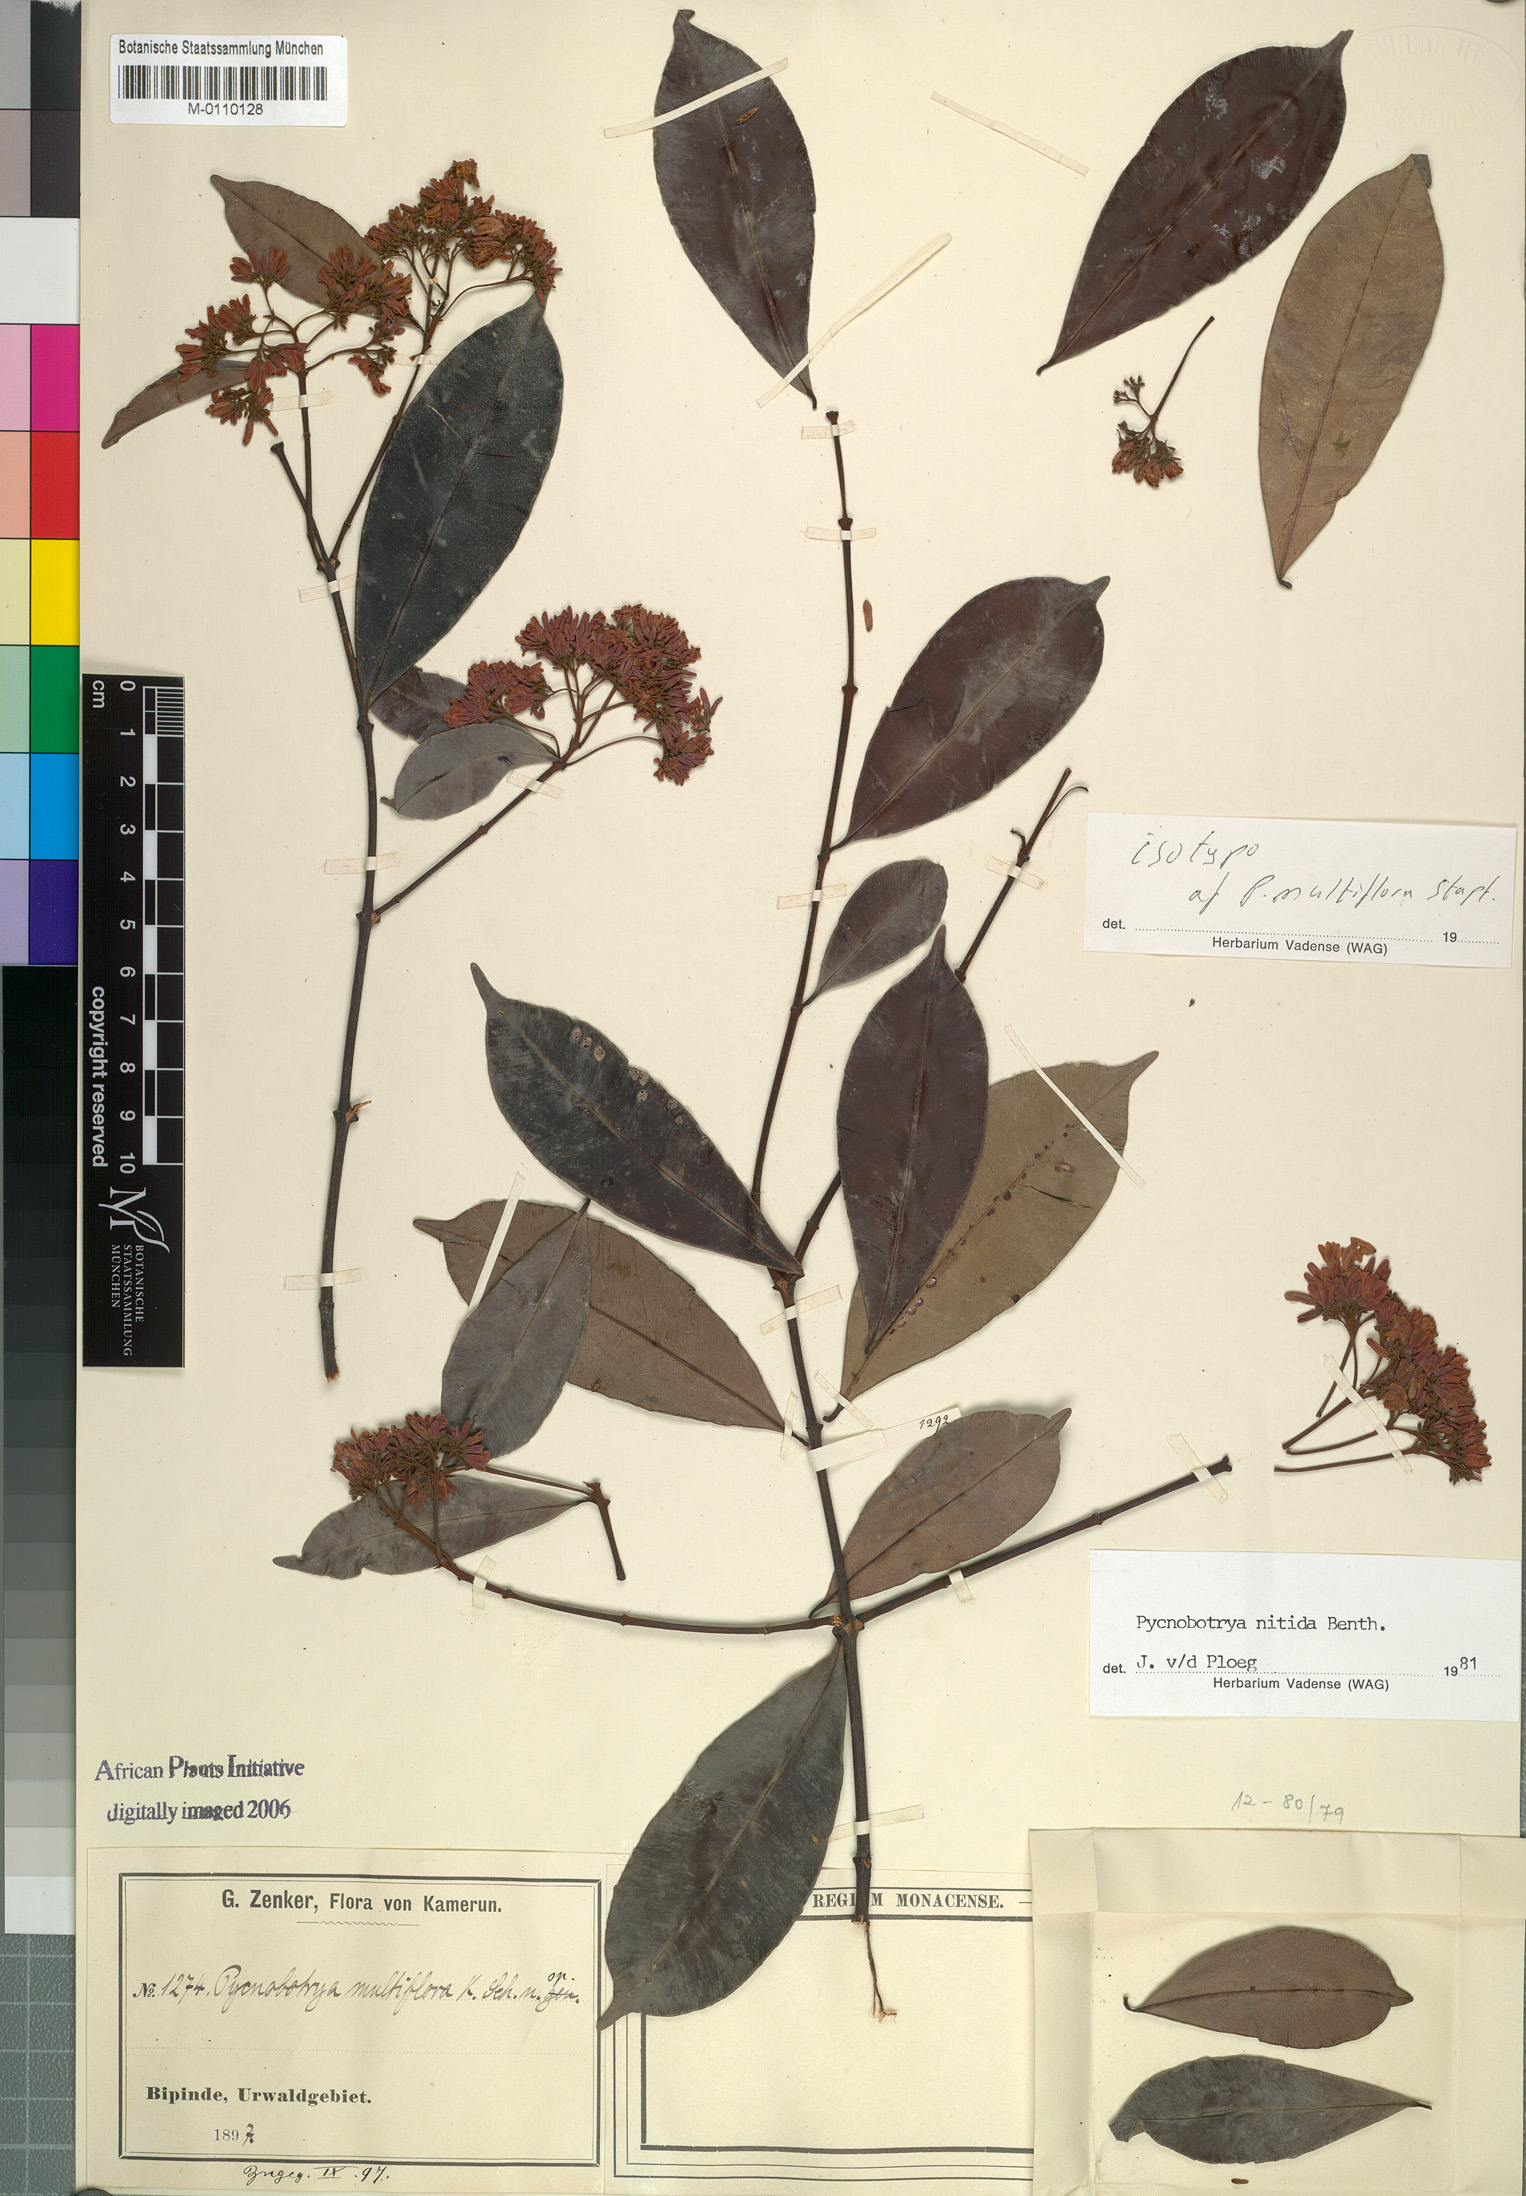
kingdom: Plantae
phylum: Tracheophyta
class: Magnoliopsida
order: Gentianales
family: Apocynaceae
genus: Pycnobotrya
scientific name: Pycnobotrya nitida
